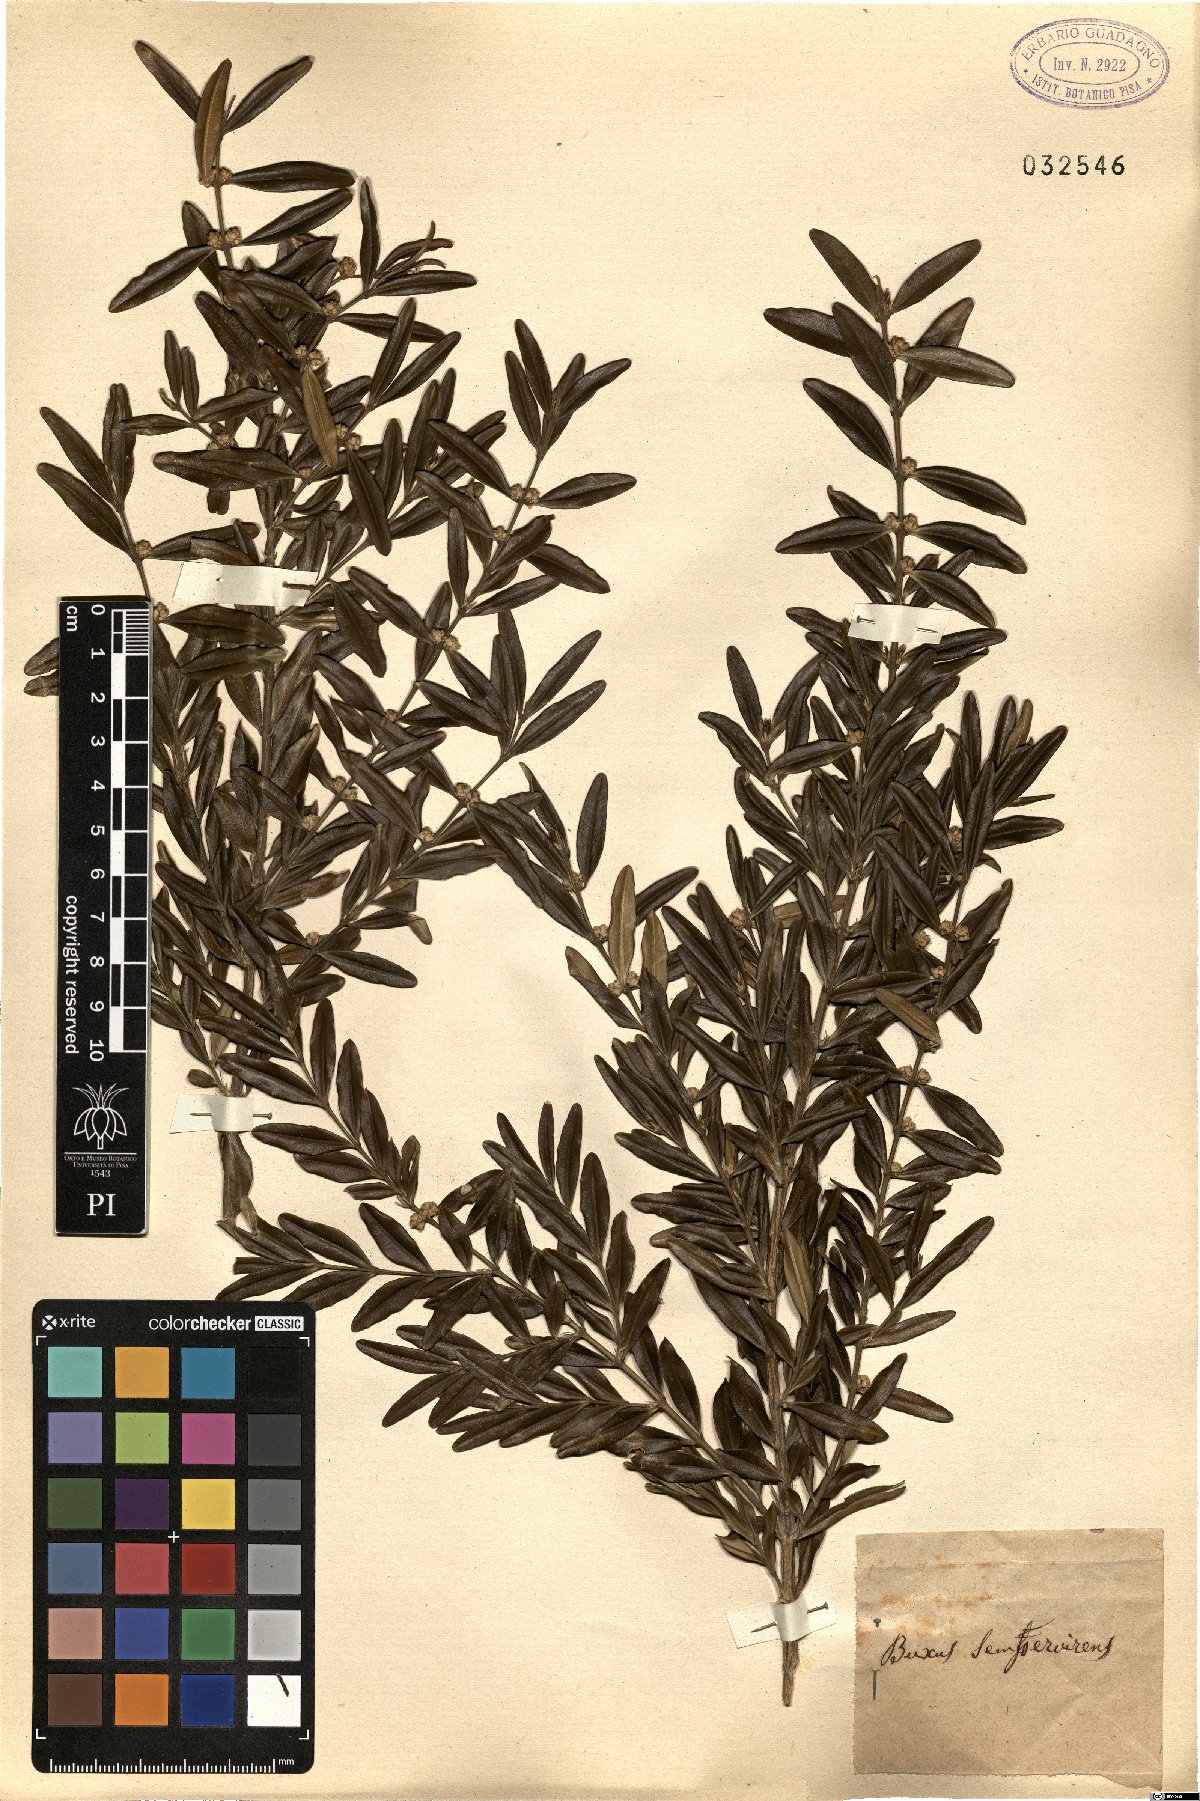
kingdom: Plantae
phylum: Tracheophyta
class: Magnoliopsida
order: Buxales
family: Buxaceae
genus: Buxus
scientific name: Buxus sempervirens
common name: Box
